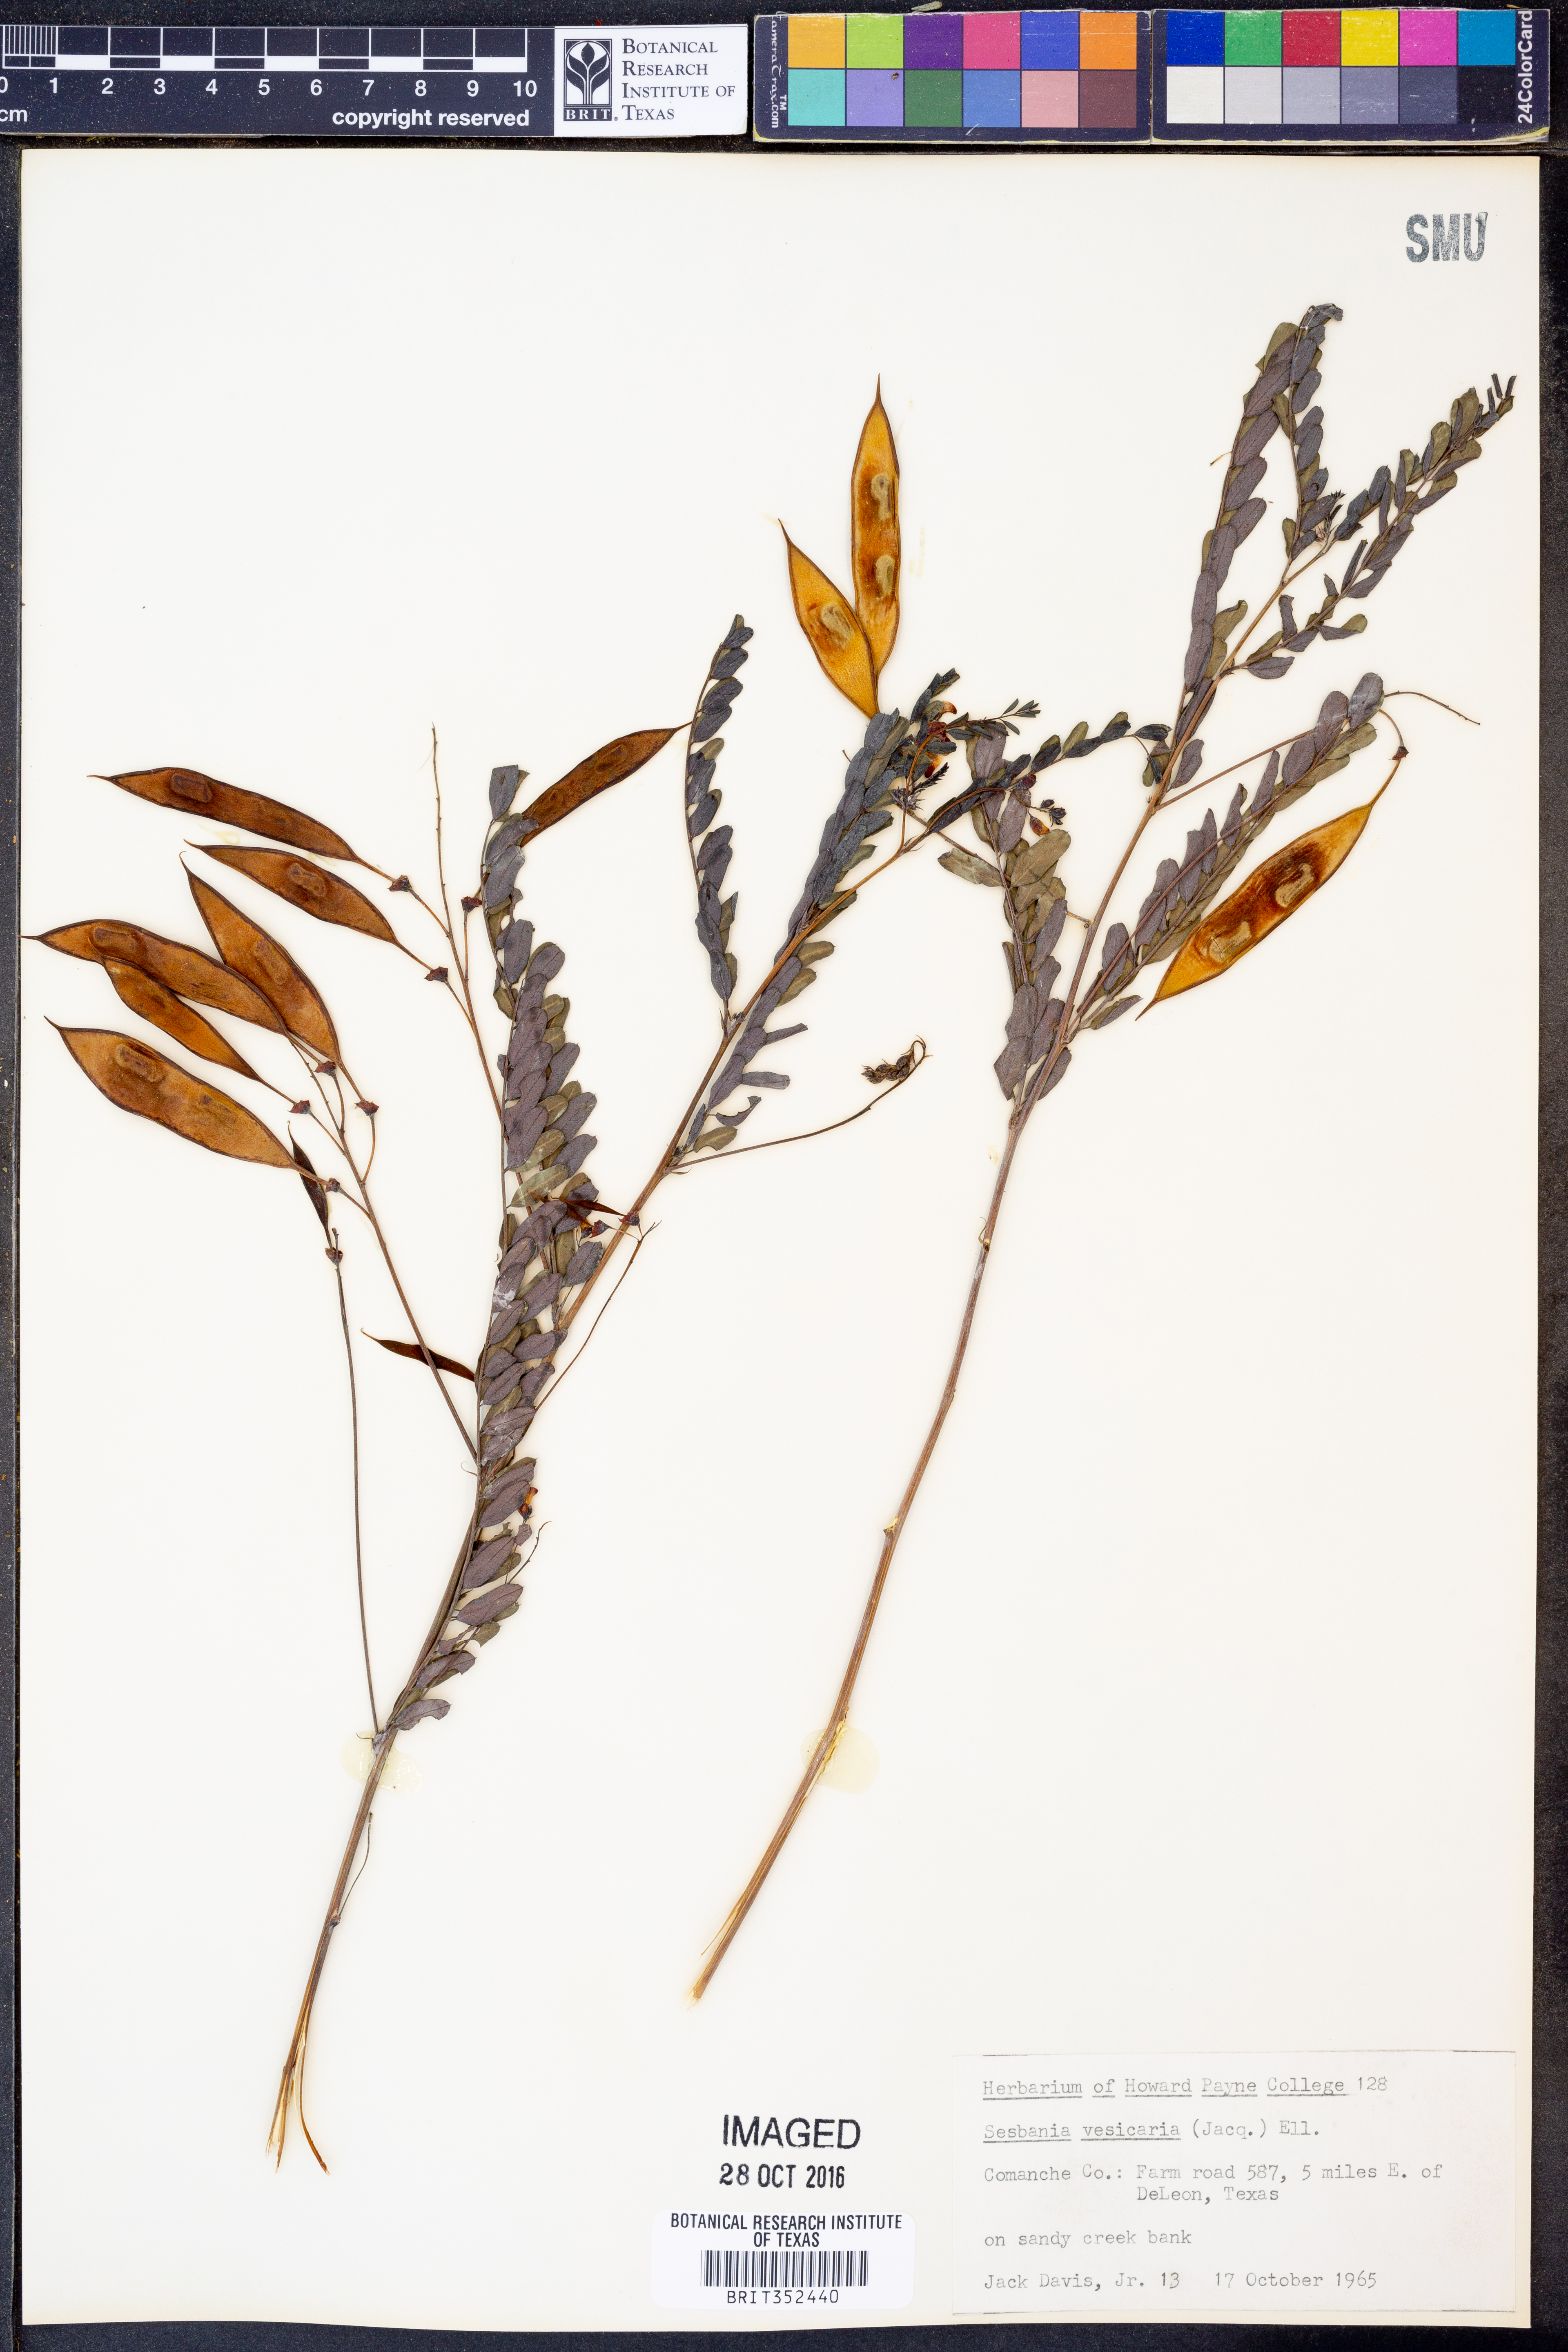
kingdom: Plantae
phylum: Tracheophyta
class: Magnoliopsida
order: Fabales
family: Fabaceae
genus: Sesbania
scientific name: Sesbania vesicaria
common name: Bagpod
